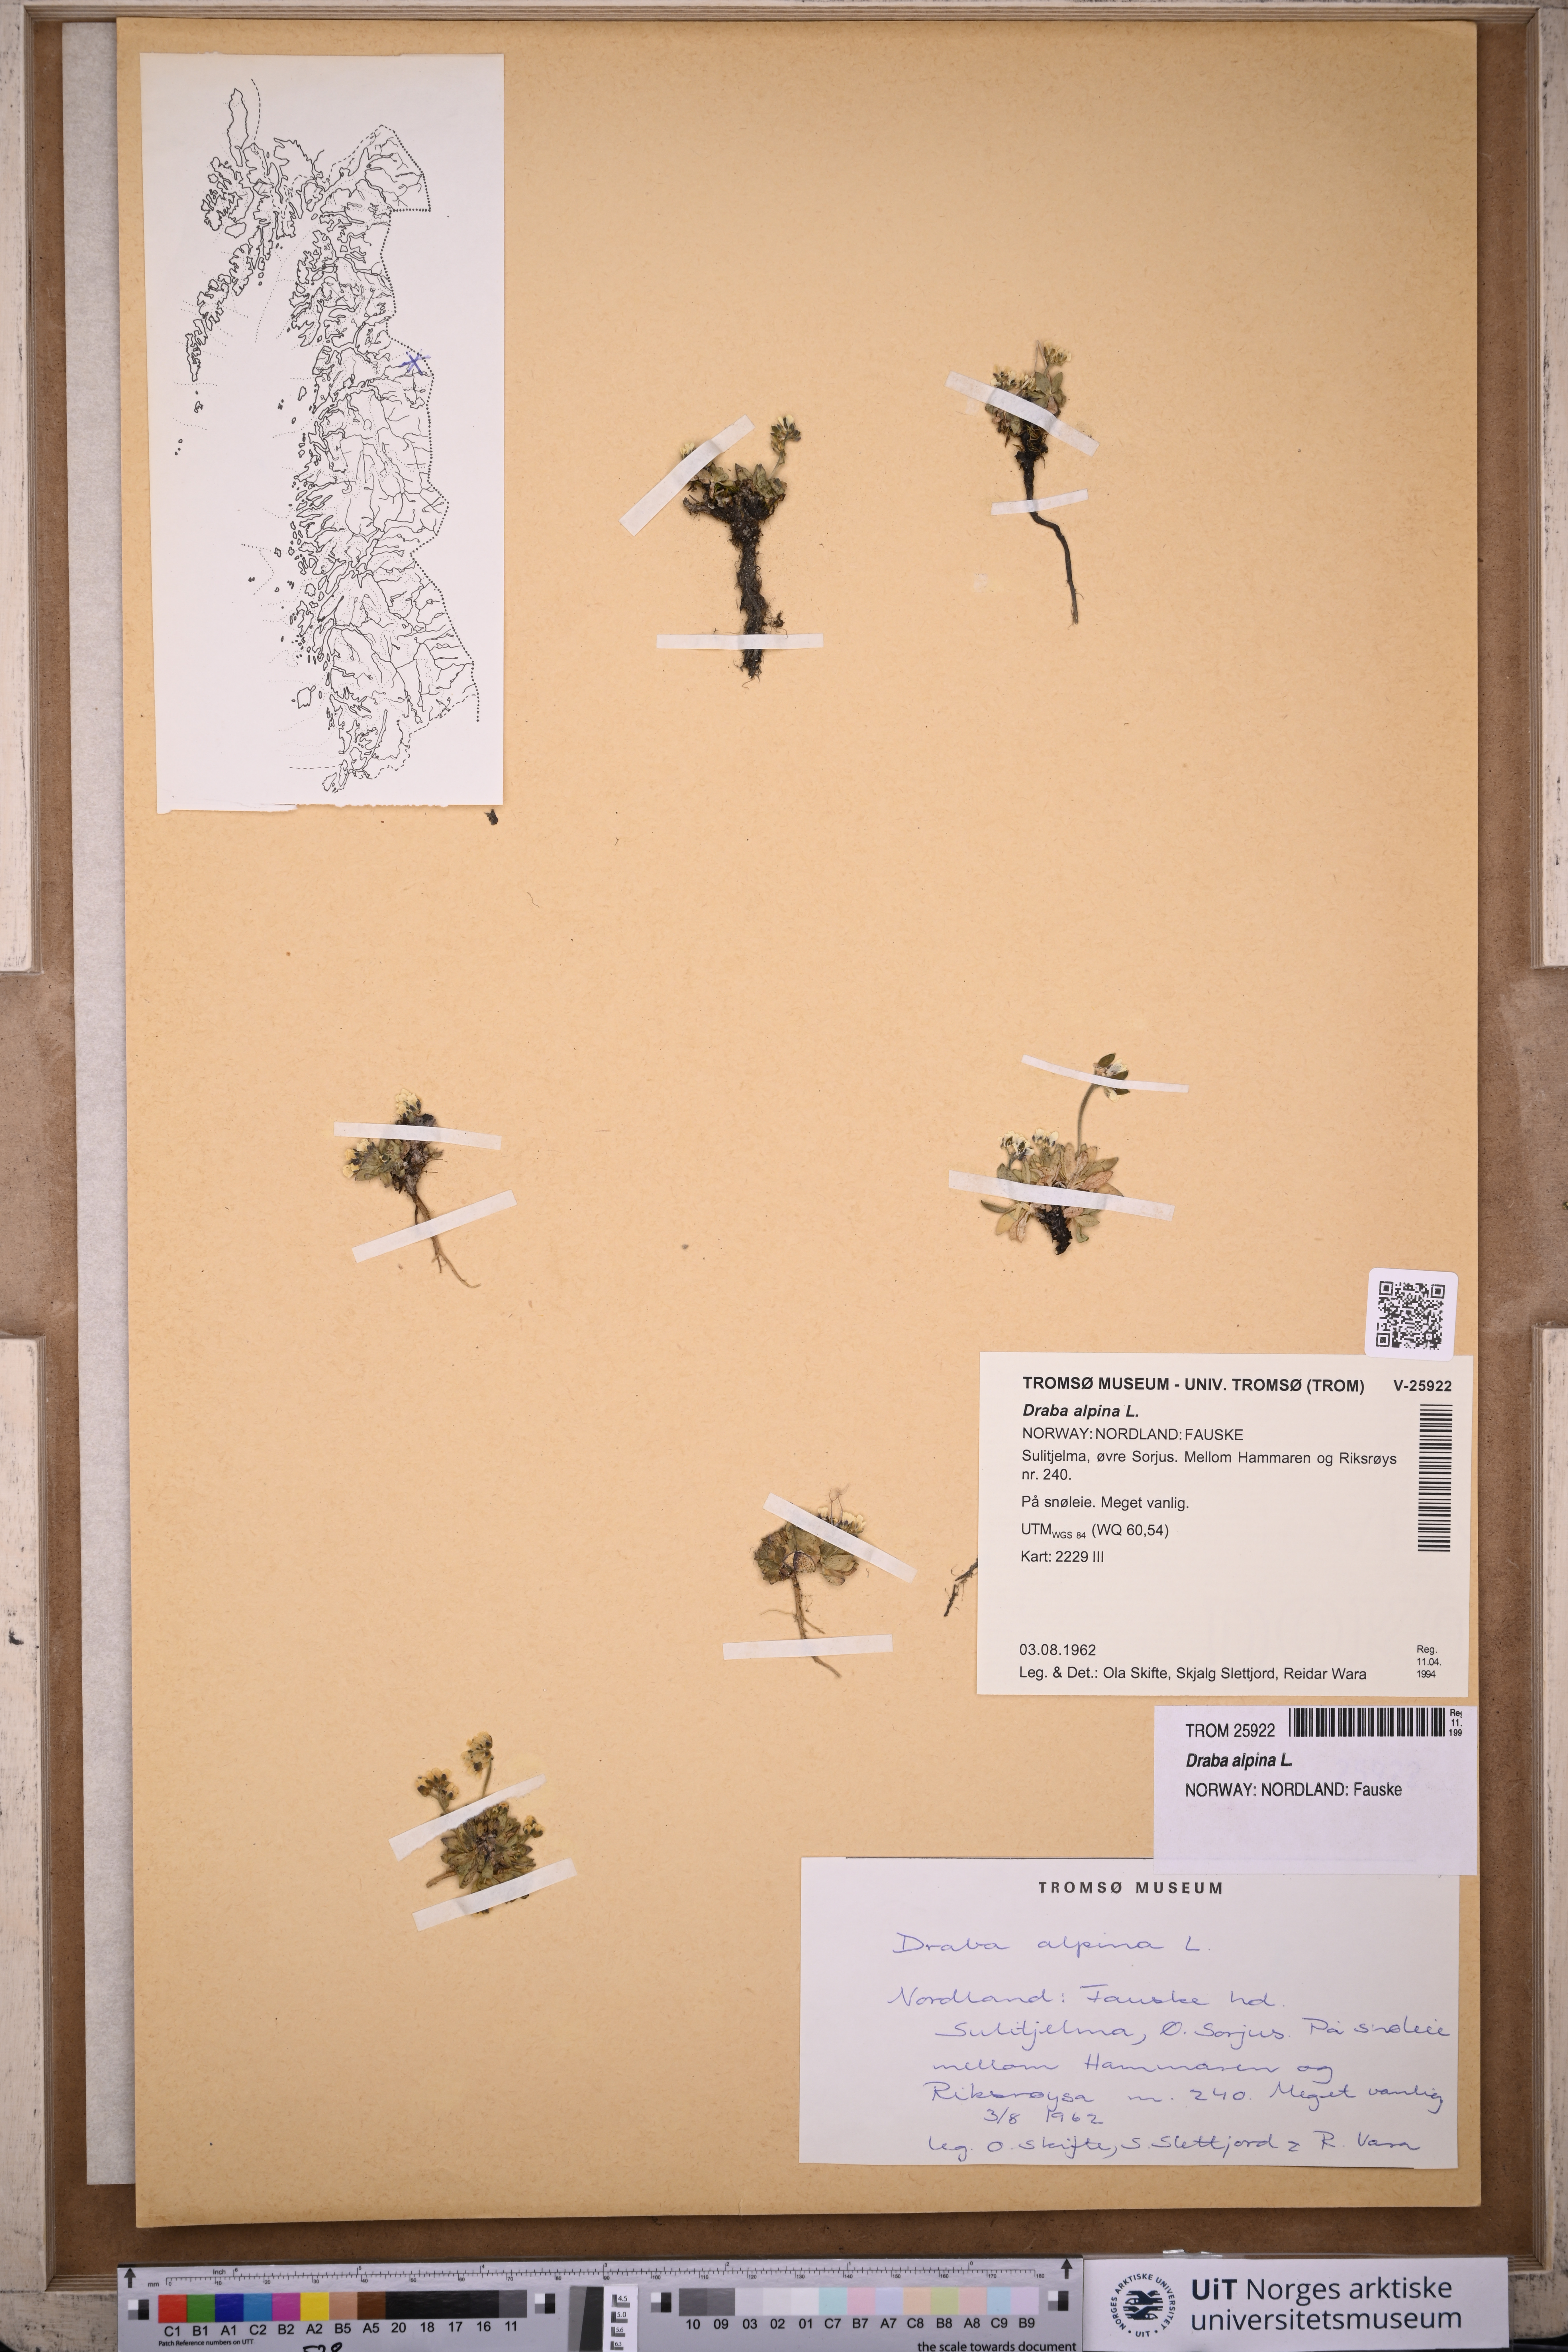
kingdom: Plantae
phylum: Tracheophyta
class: Magnoliopsida
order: Brassicales
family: Brassicaceae
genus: Draba
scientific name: Draba alpina
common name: Alpine draba
